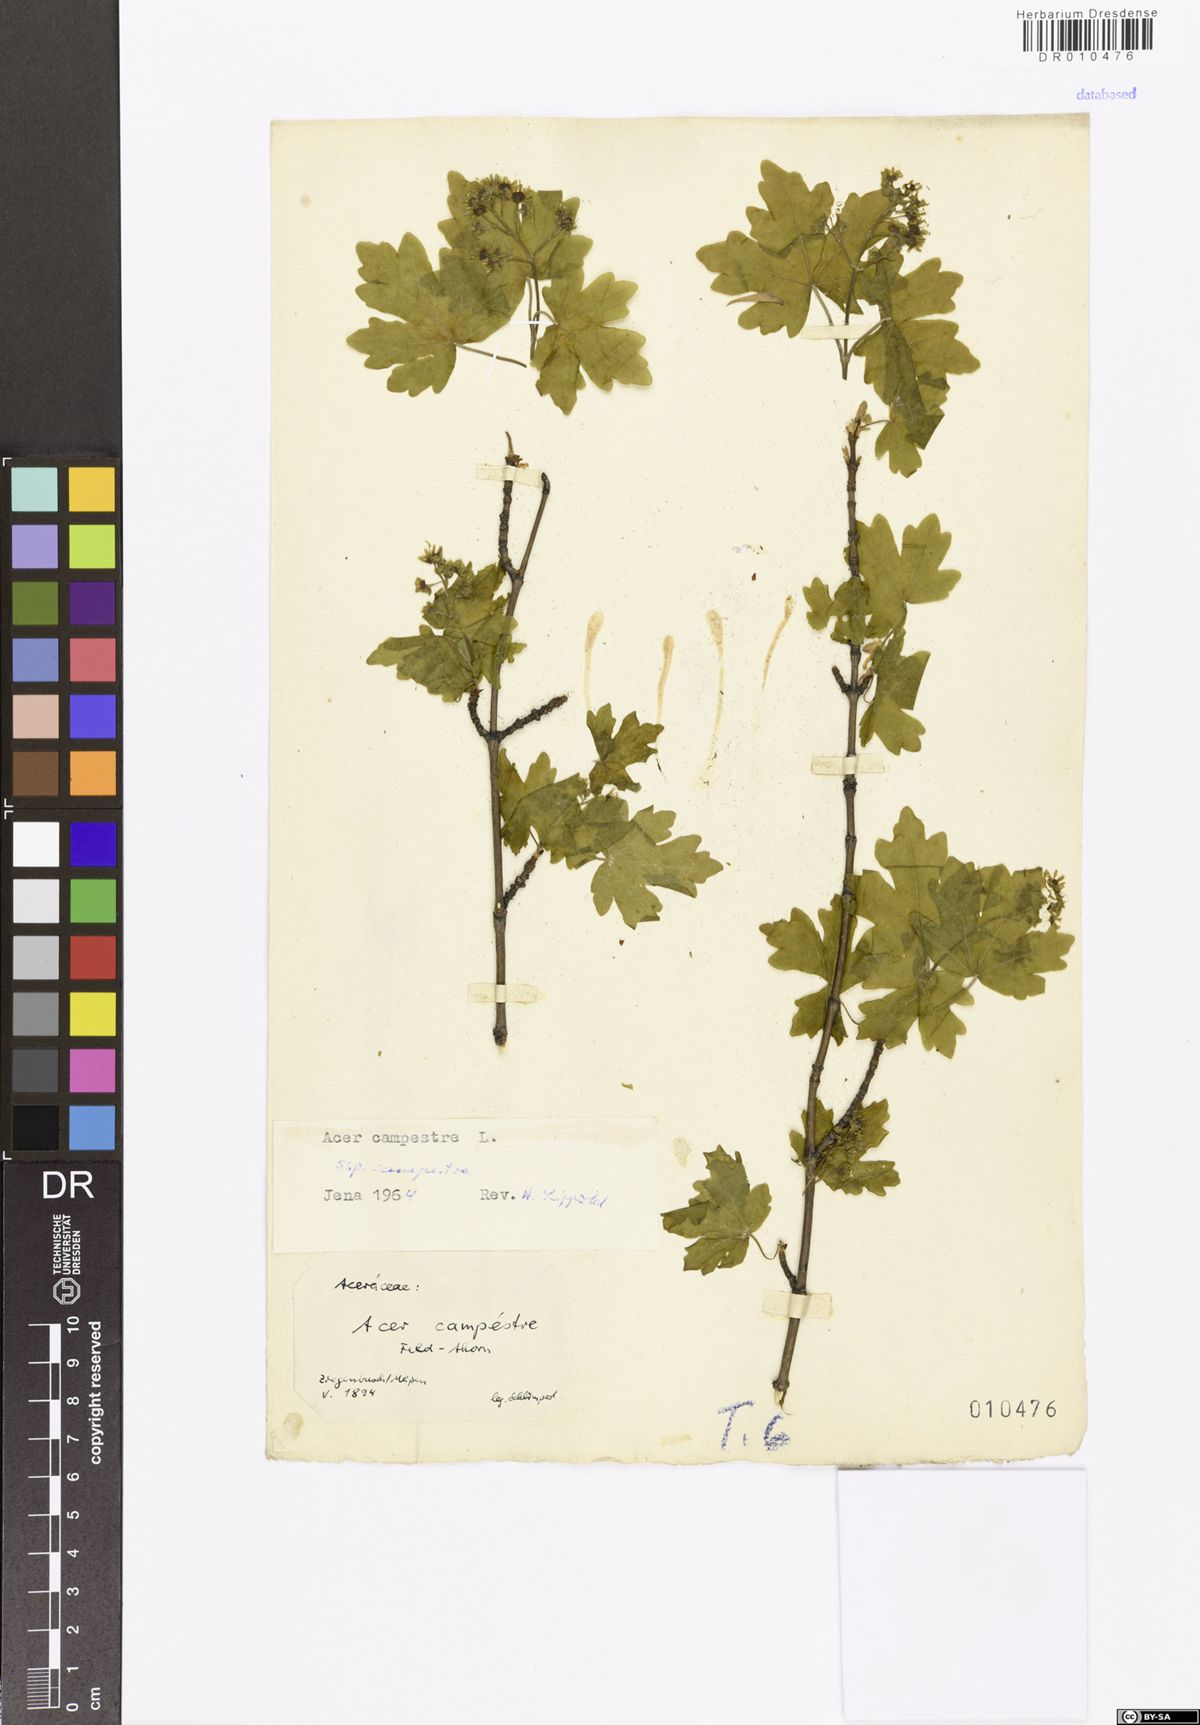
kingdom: Plantae
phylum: Tracheophyta
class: Magnoliopsida
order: Sapindales
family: Sapindaceae
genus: Acer
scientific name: Acer campestre
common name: Field maple
